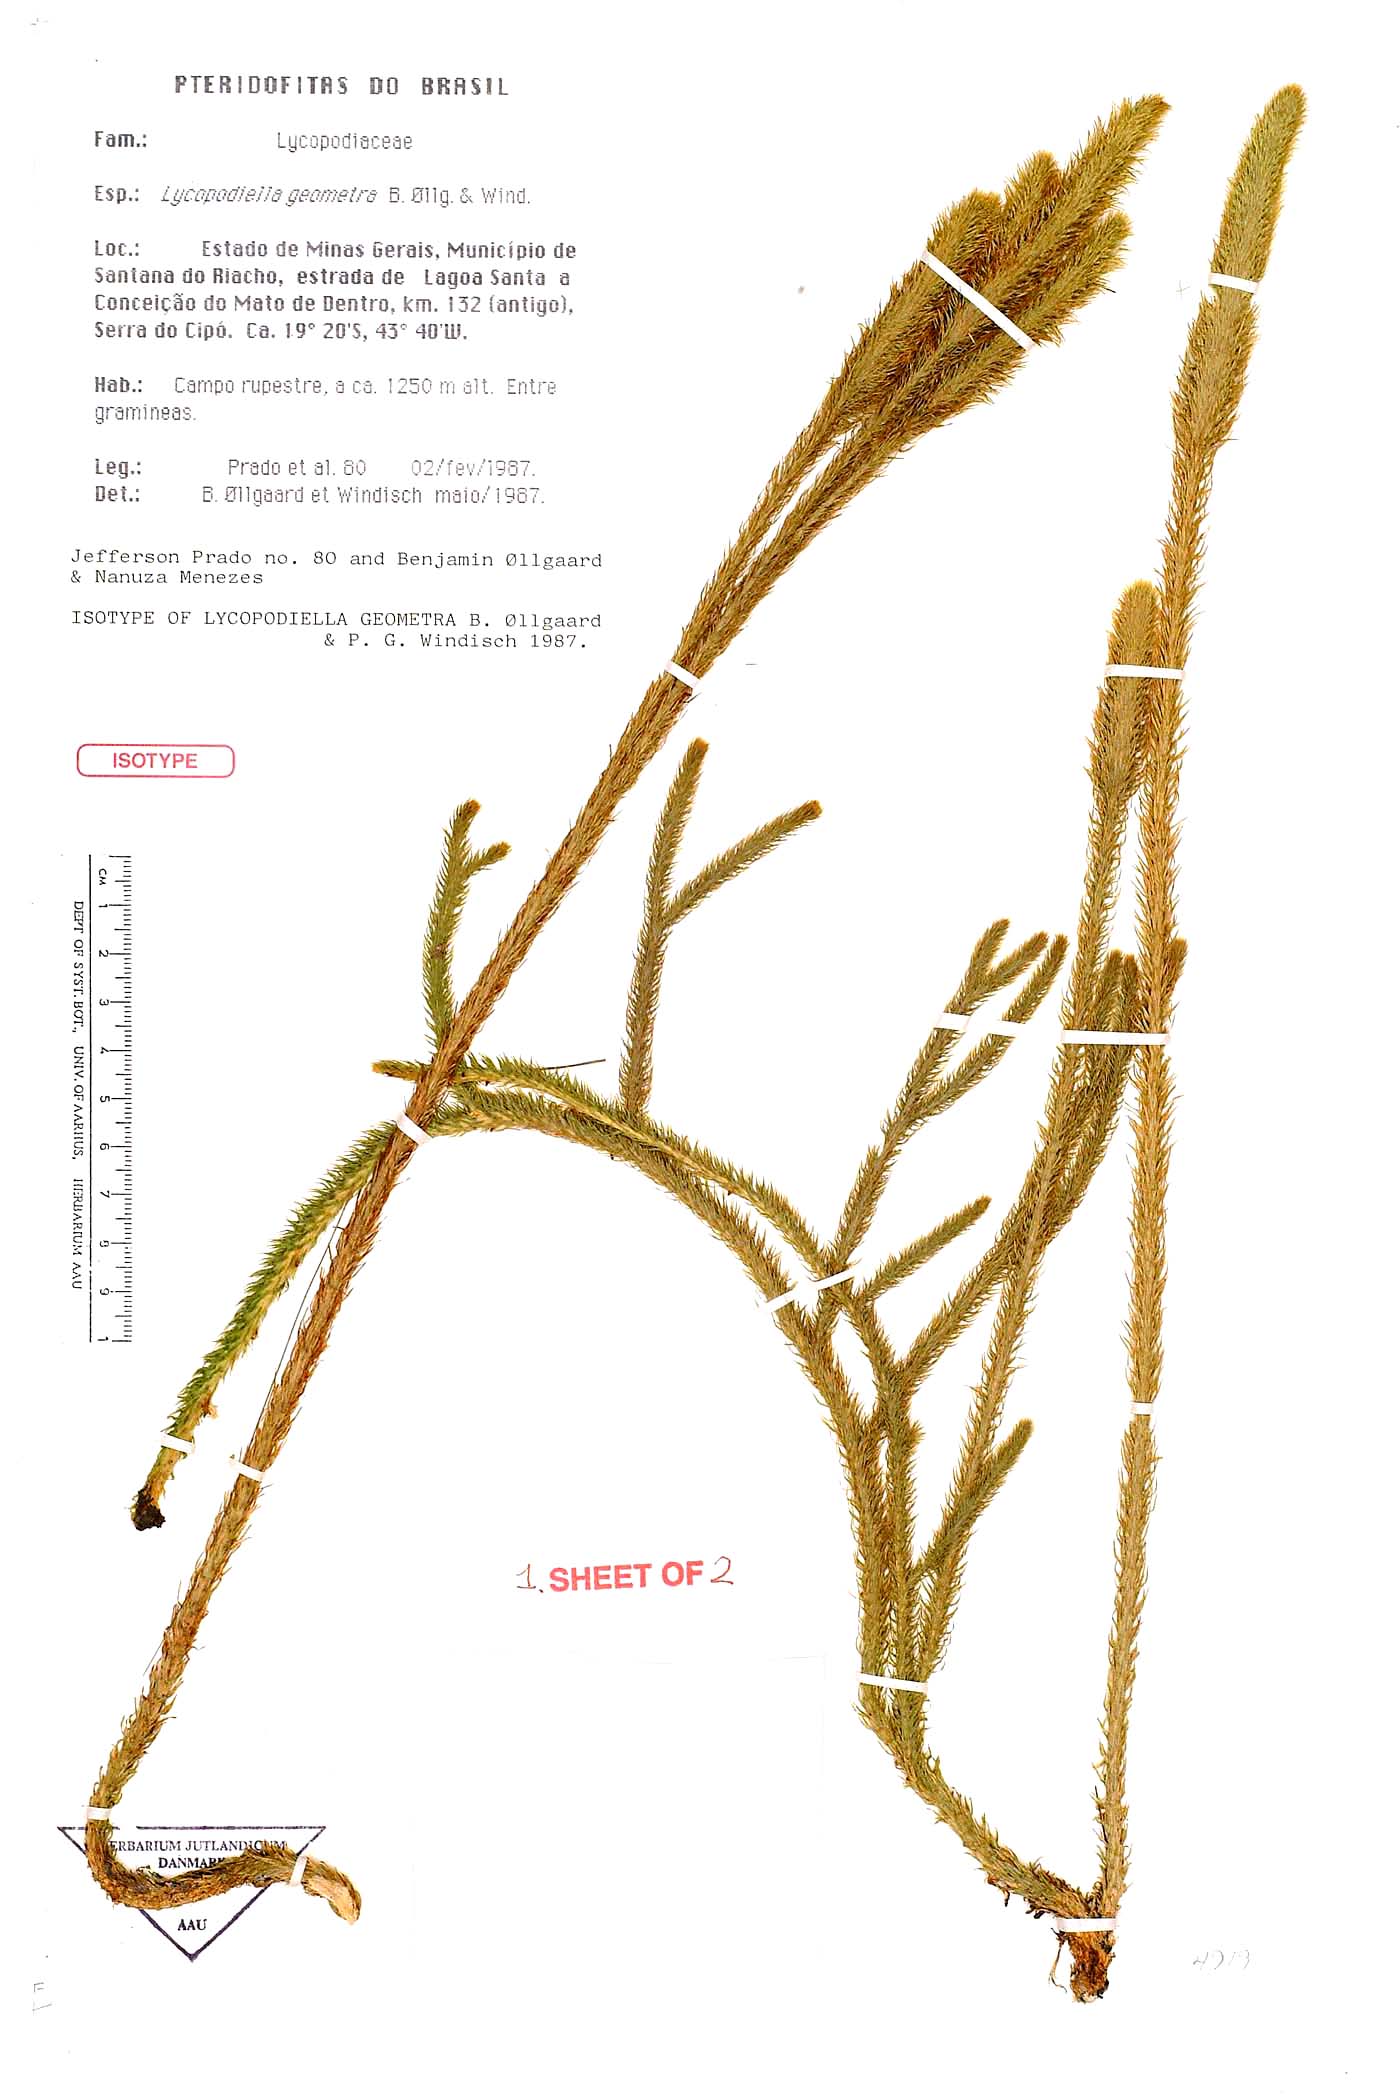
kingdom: Plantae
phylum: Tracheophyta
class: Lycopodiopsida
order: Lycopodiales
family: Lycopodiaceae
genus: Lycopodiella
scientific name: Lycopodiella geometra
